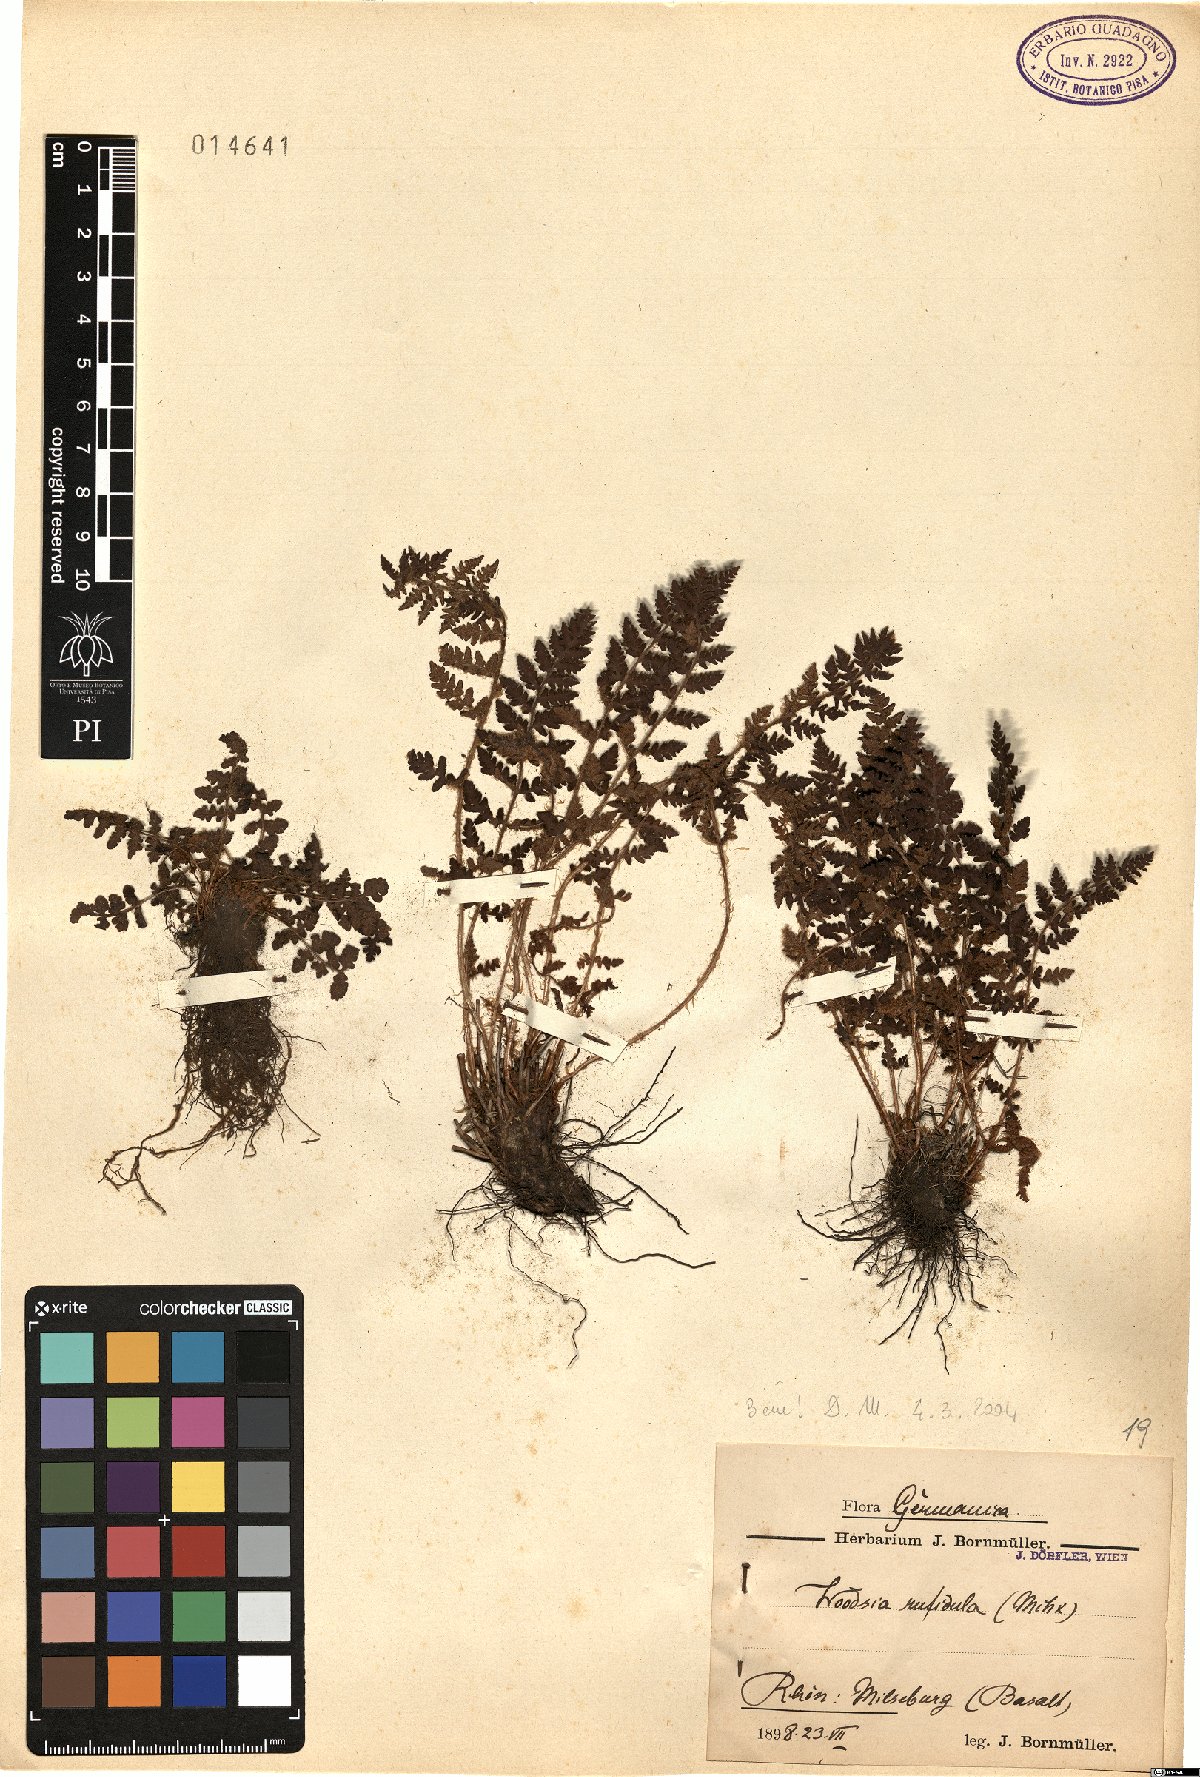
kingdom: Plantae
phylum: Tracheophyta
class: Polypodiopsida
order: Polypodiales
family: Woodsiaceae
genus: Woodsia
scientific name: Woodsia ilvensis
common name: Fragrant woodsia
